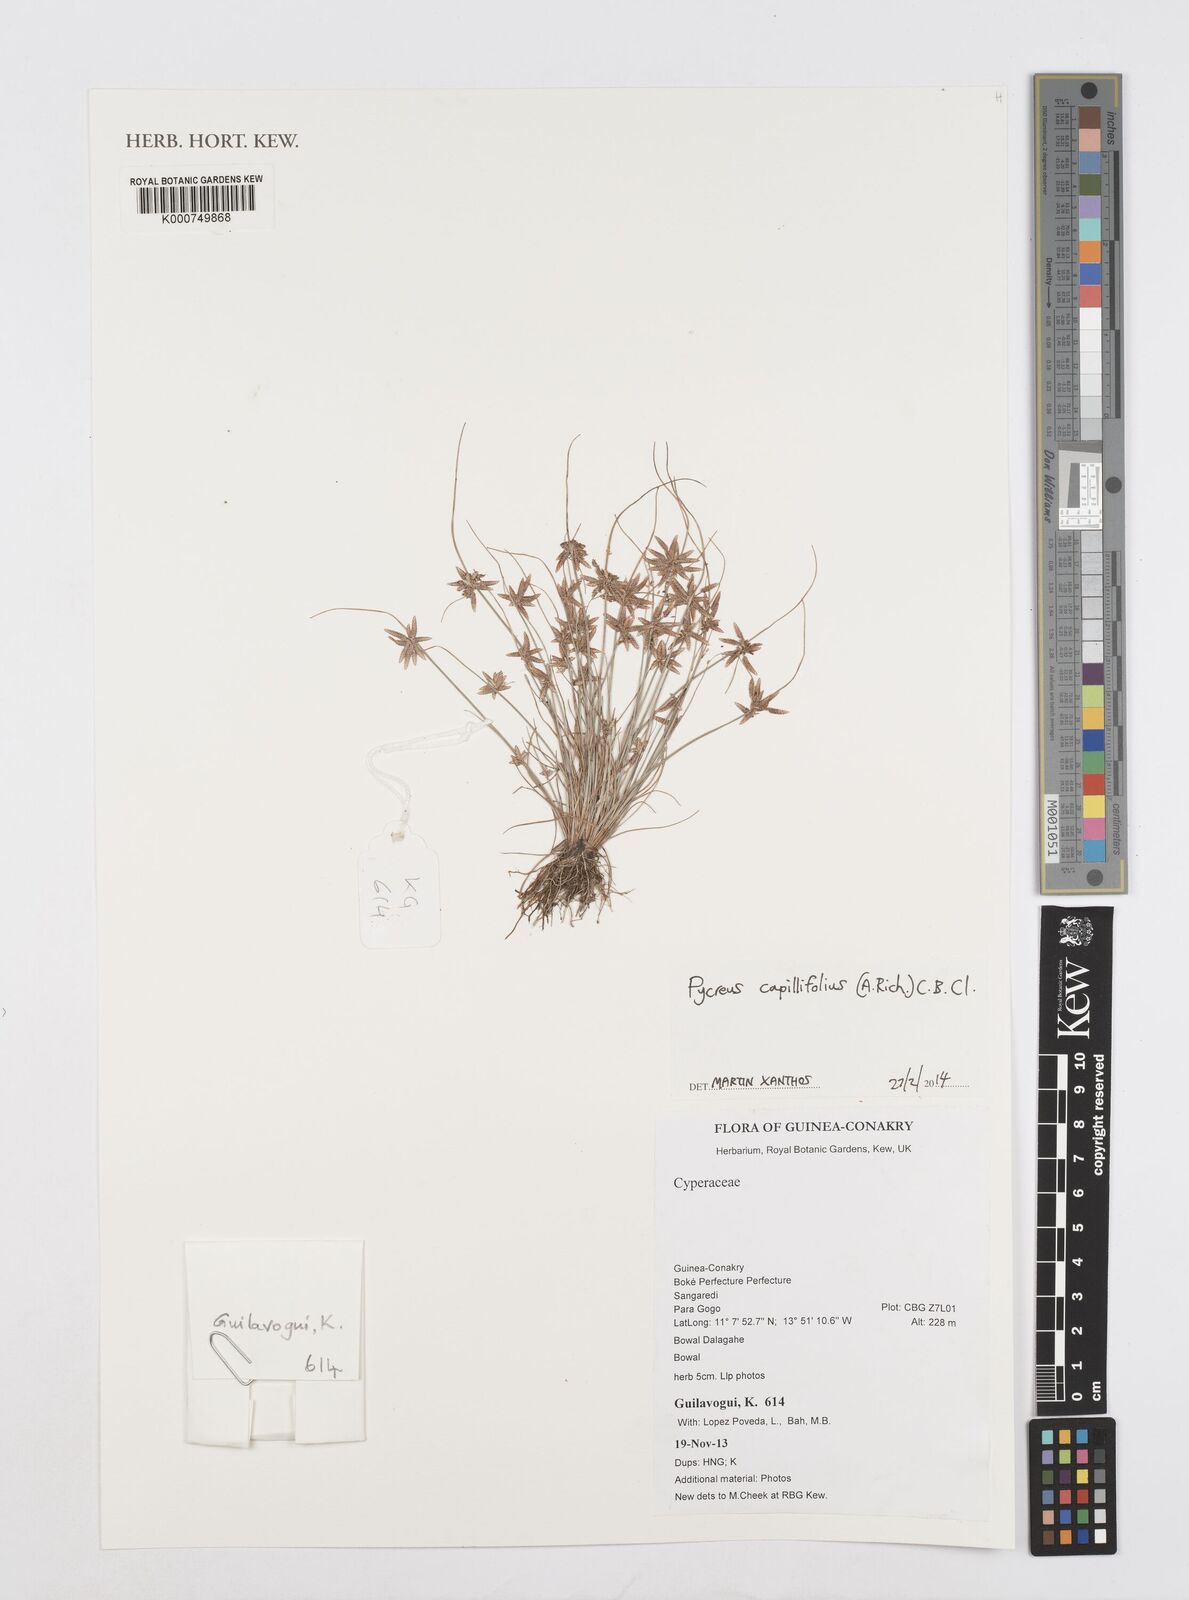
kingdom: Plantae
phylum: Tracheophyta
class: Liliopsida
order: Poales
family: Cyperaceae
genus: Cyperus
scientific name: Cyperus capillifolius
